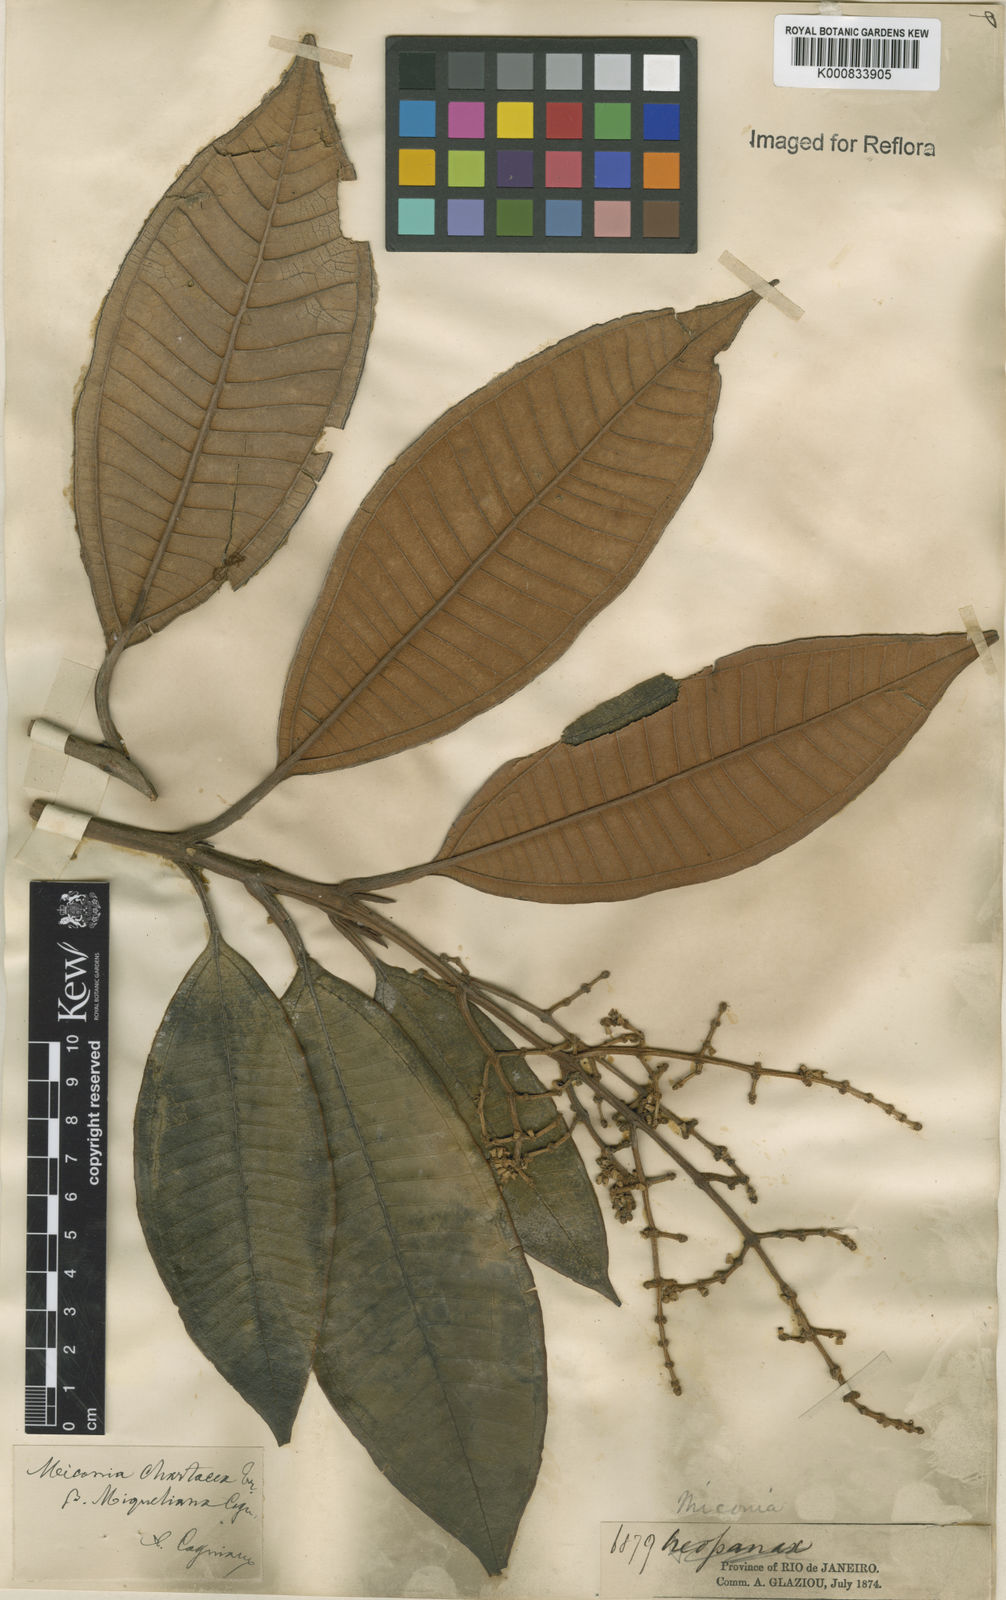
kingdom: Plantae
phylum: Tracheophyta
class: Magnoliopsida
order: Myrtales
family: Melastomataceae
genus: Miconia
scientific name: Miconia chartacea
